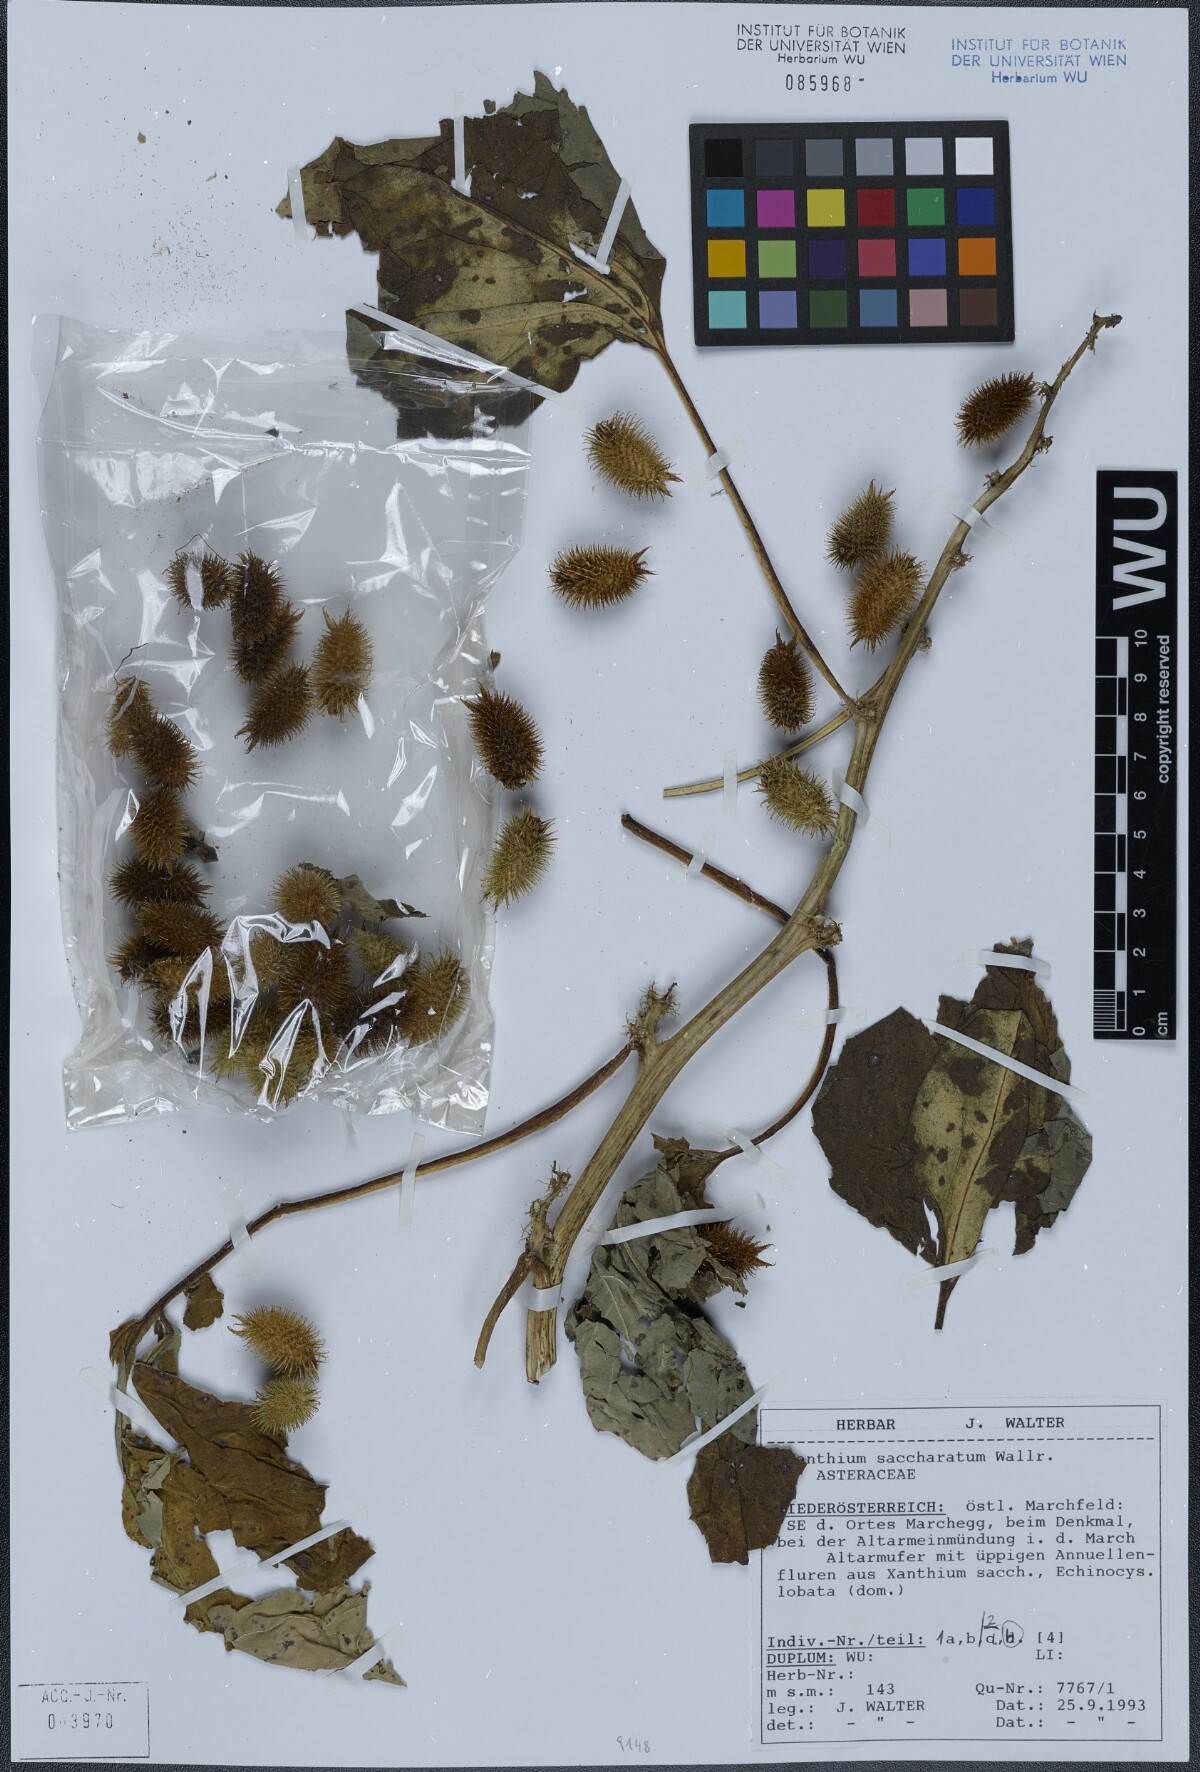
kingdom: Plantae
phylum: Tracheophyta
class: Magnoliopsida
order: Asterales
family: Asteraceae
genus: Xanthium
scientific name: Xanthium orientale
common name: Californian burr
